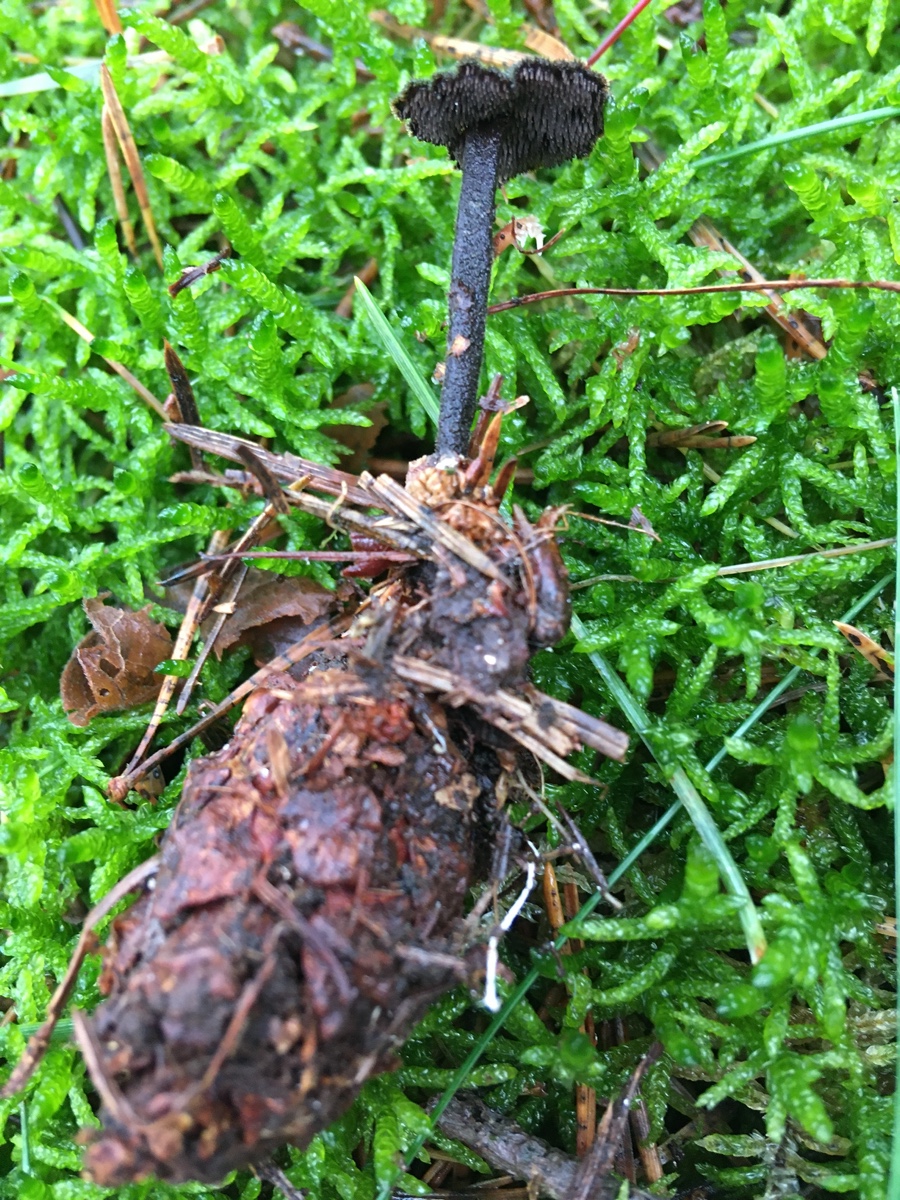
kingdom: Fungi
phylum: Basidiomycota
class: Agaricomycetes
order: Russulales
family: Auriscalpiaceae
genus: Auriscalpium
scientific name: Auriscalpium vulgare
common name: koglepigsvamp
